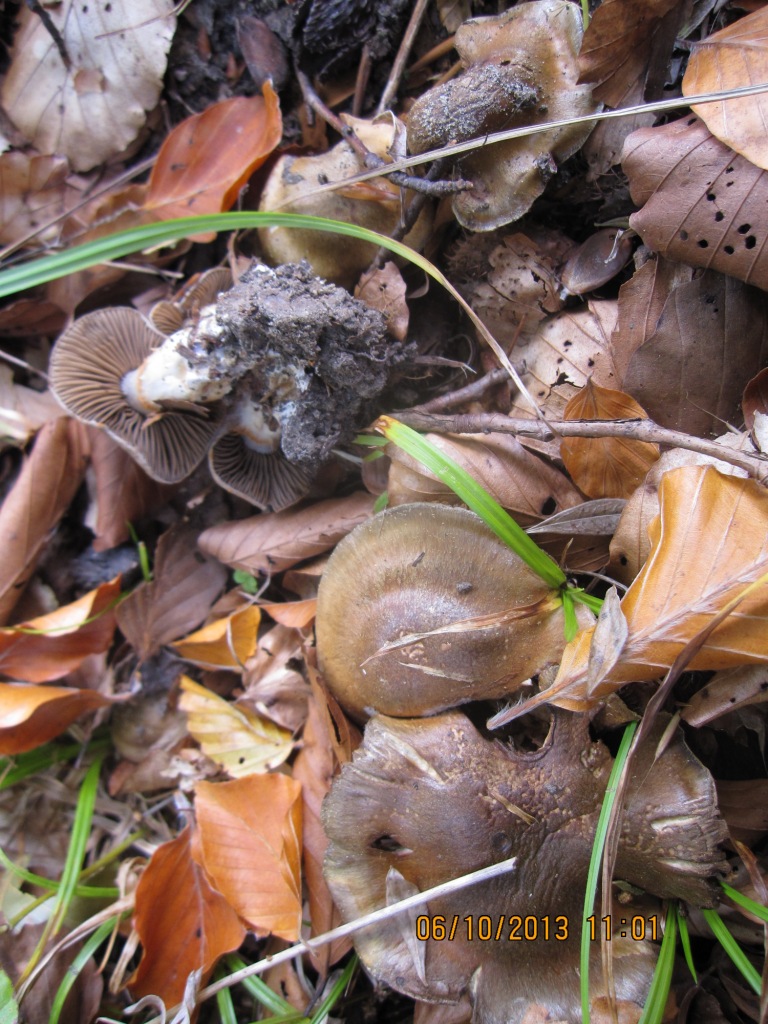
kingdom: Fungi
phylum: Basidiomycota
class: Agaricomycetes
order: Agaricales
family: Cortinariaceae
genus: Cortinarius
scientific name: Cortinarius
